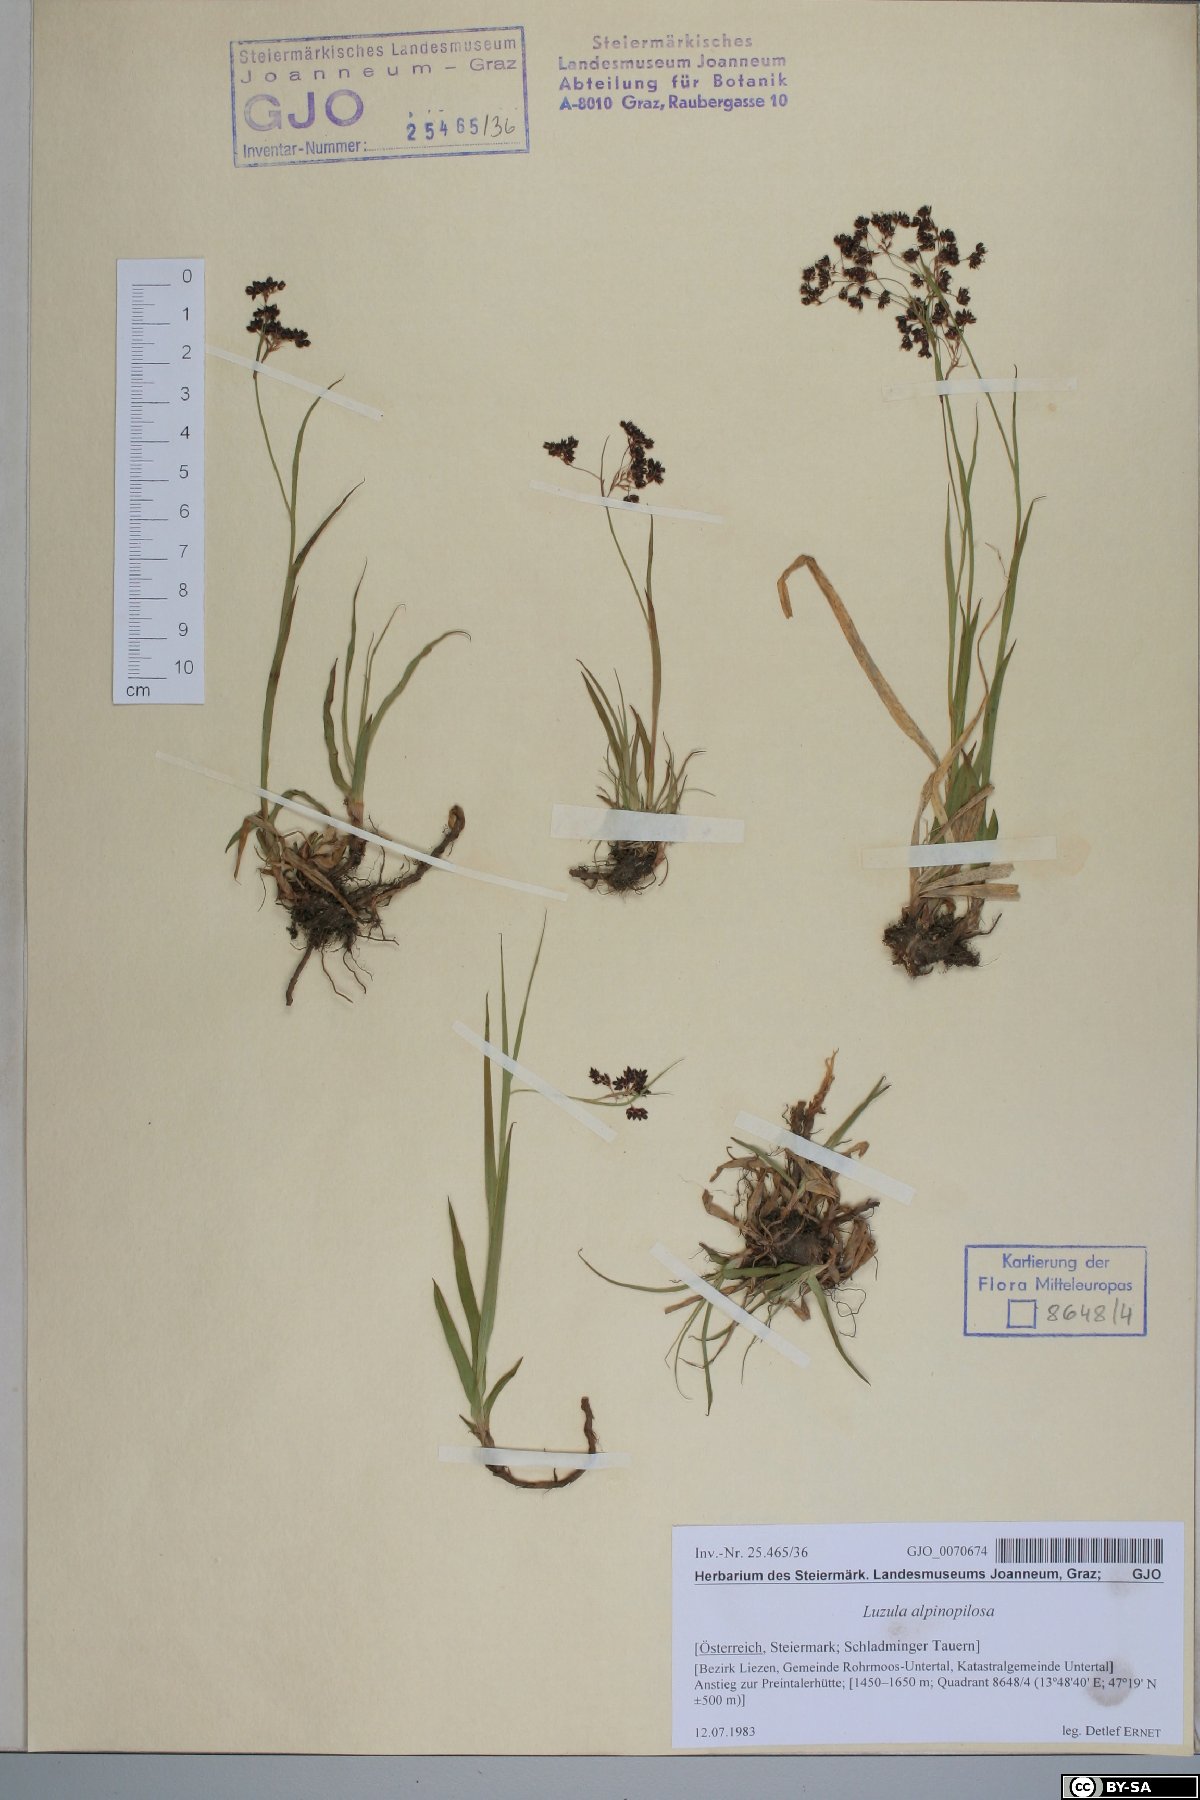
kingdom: Plantae
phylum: Tracheophyta
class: Liliopsida
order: Poales
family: Juncaceae
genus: Luzula
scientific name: Luzula alpinopilosa
